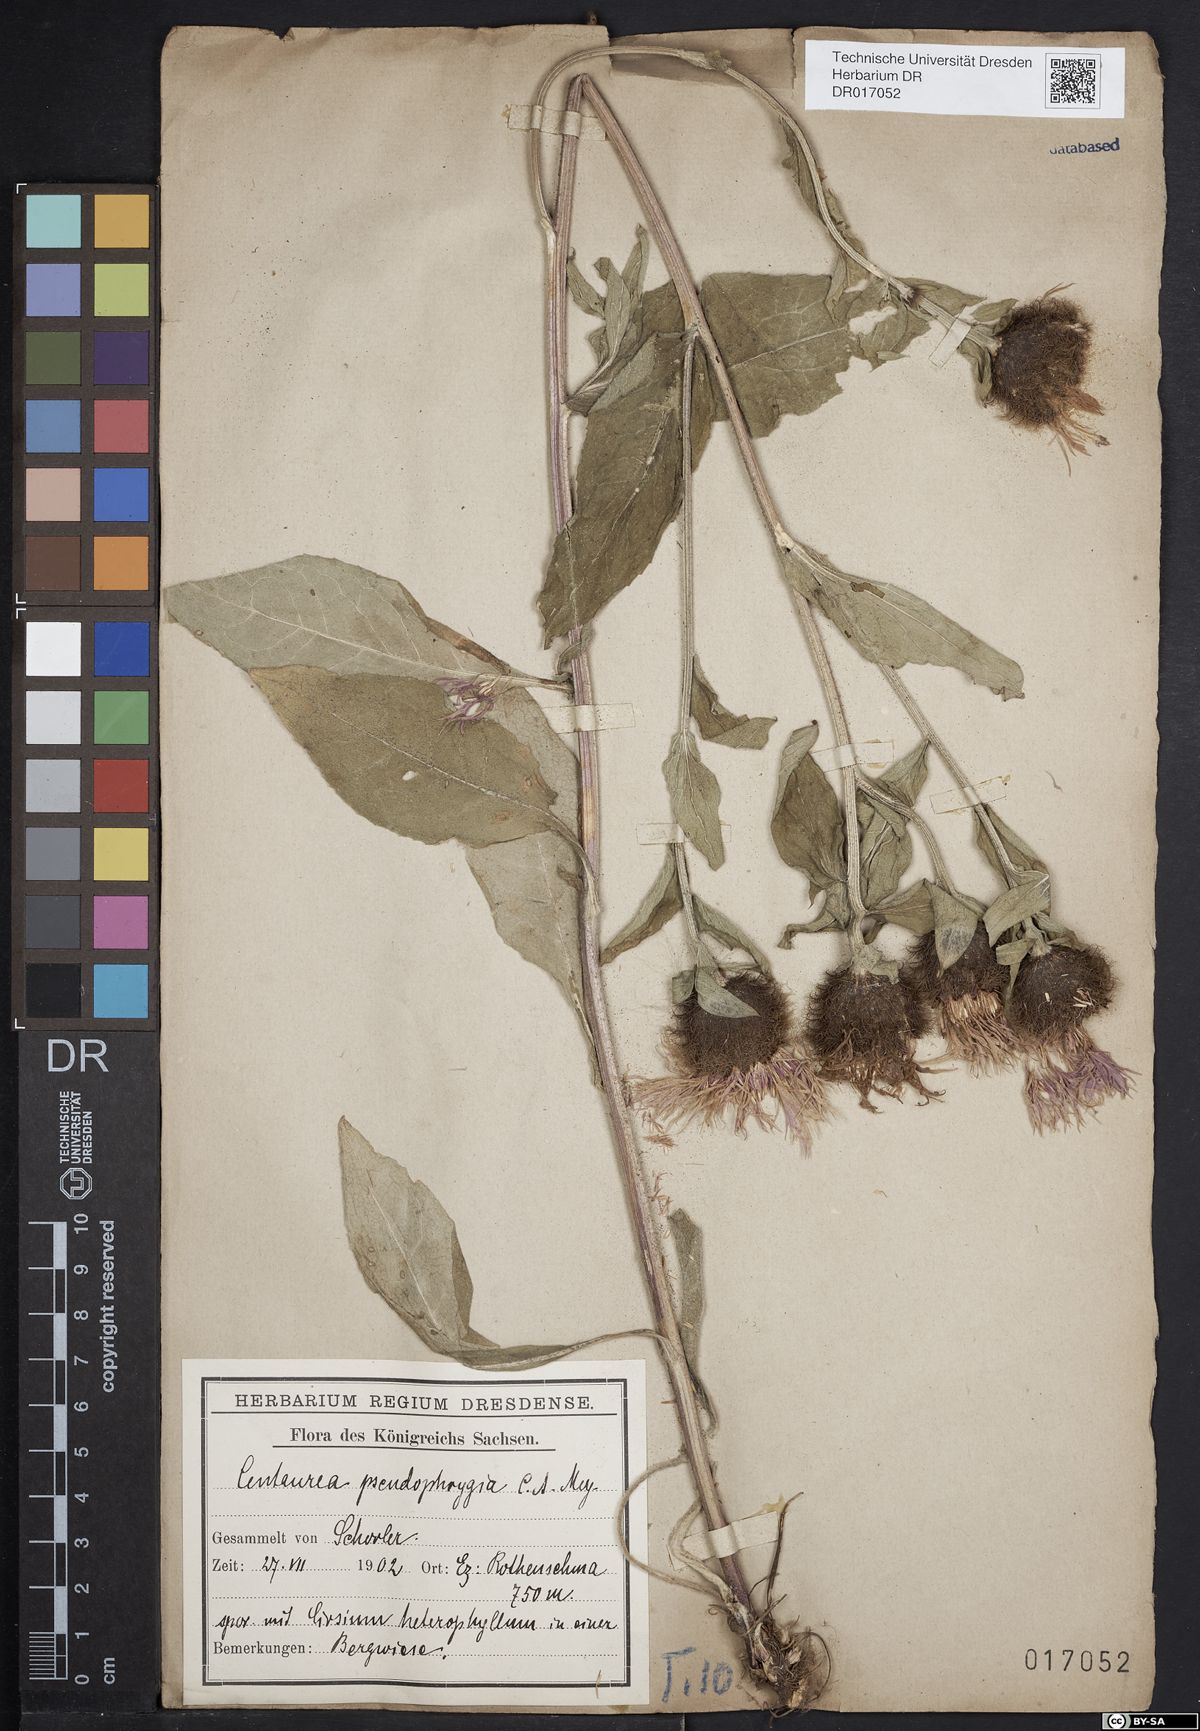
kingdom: Plantae
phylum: Tracheophyta
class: Magnoliopsida
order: Asterales
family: Asteraceae
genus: Centaurea
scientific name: Centaurea pseudophrygia
